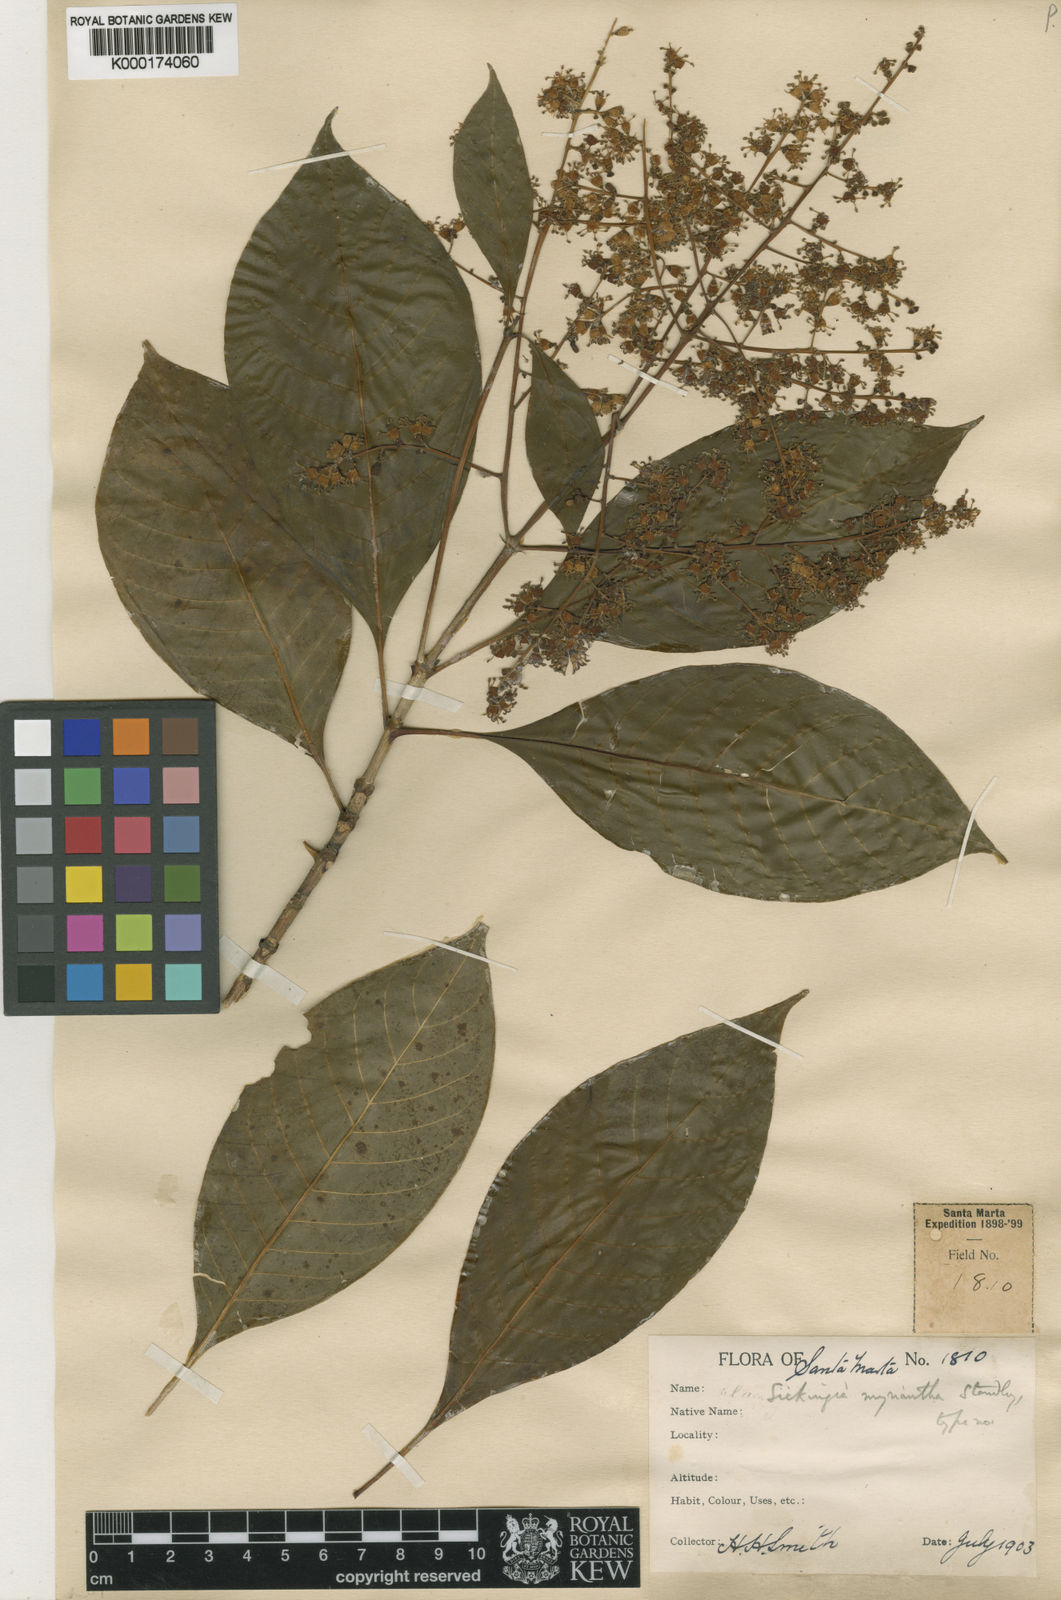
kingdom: Plantae
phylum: Tracheophyta
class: Magnoliopsida
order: Gentianales
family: Rubiaceae
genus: Elaeagia
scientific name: Elaeagia myriantha
